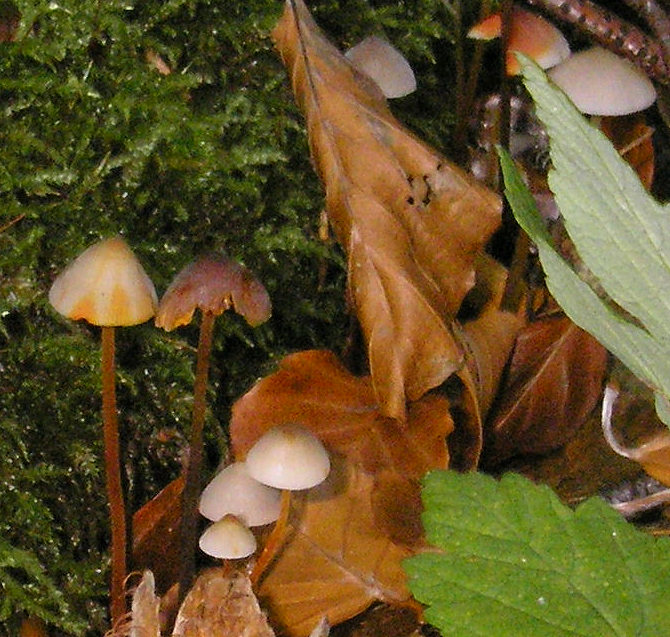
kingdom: Fungi
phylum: Basidiomycota
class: Agaricomycetes
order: Agaricales
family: Mycenaceae
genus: Mycena
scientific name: Mycena crocata
